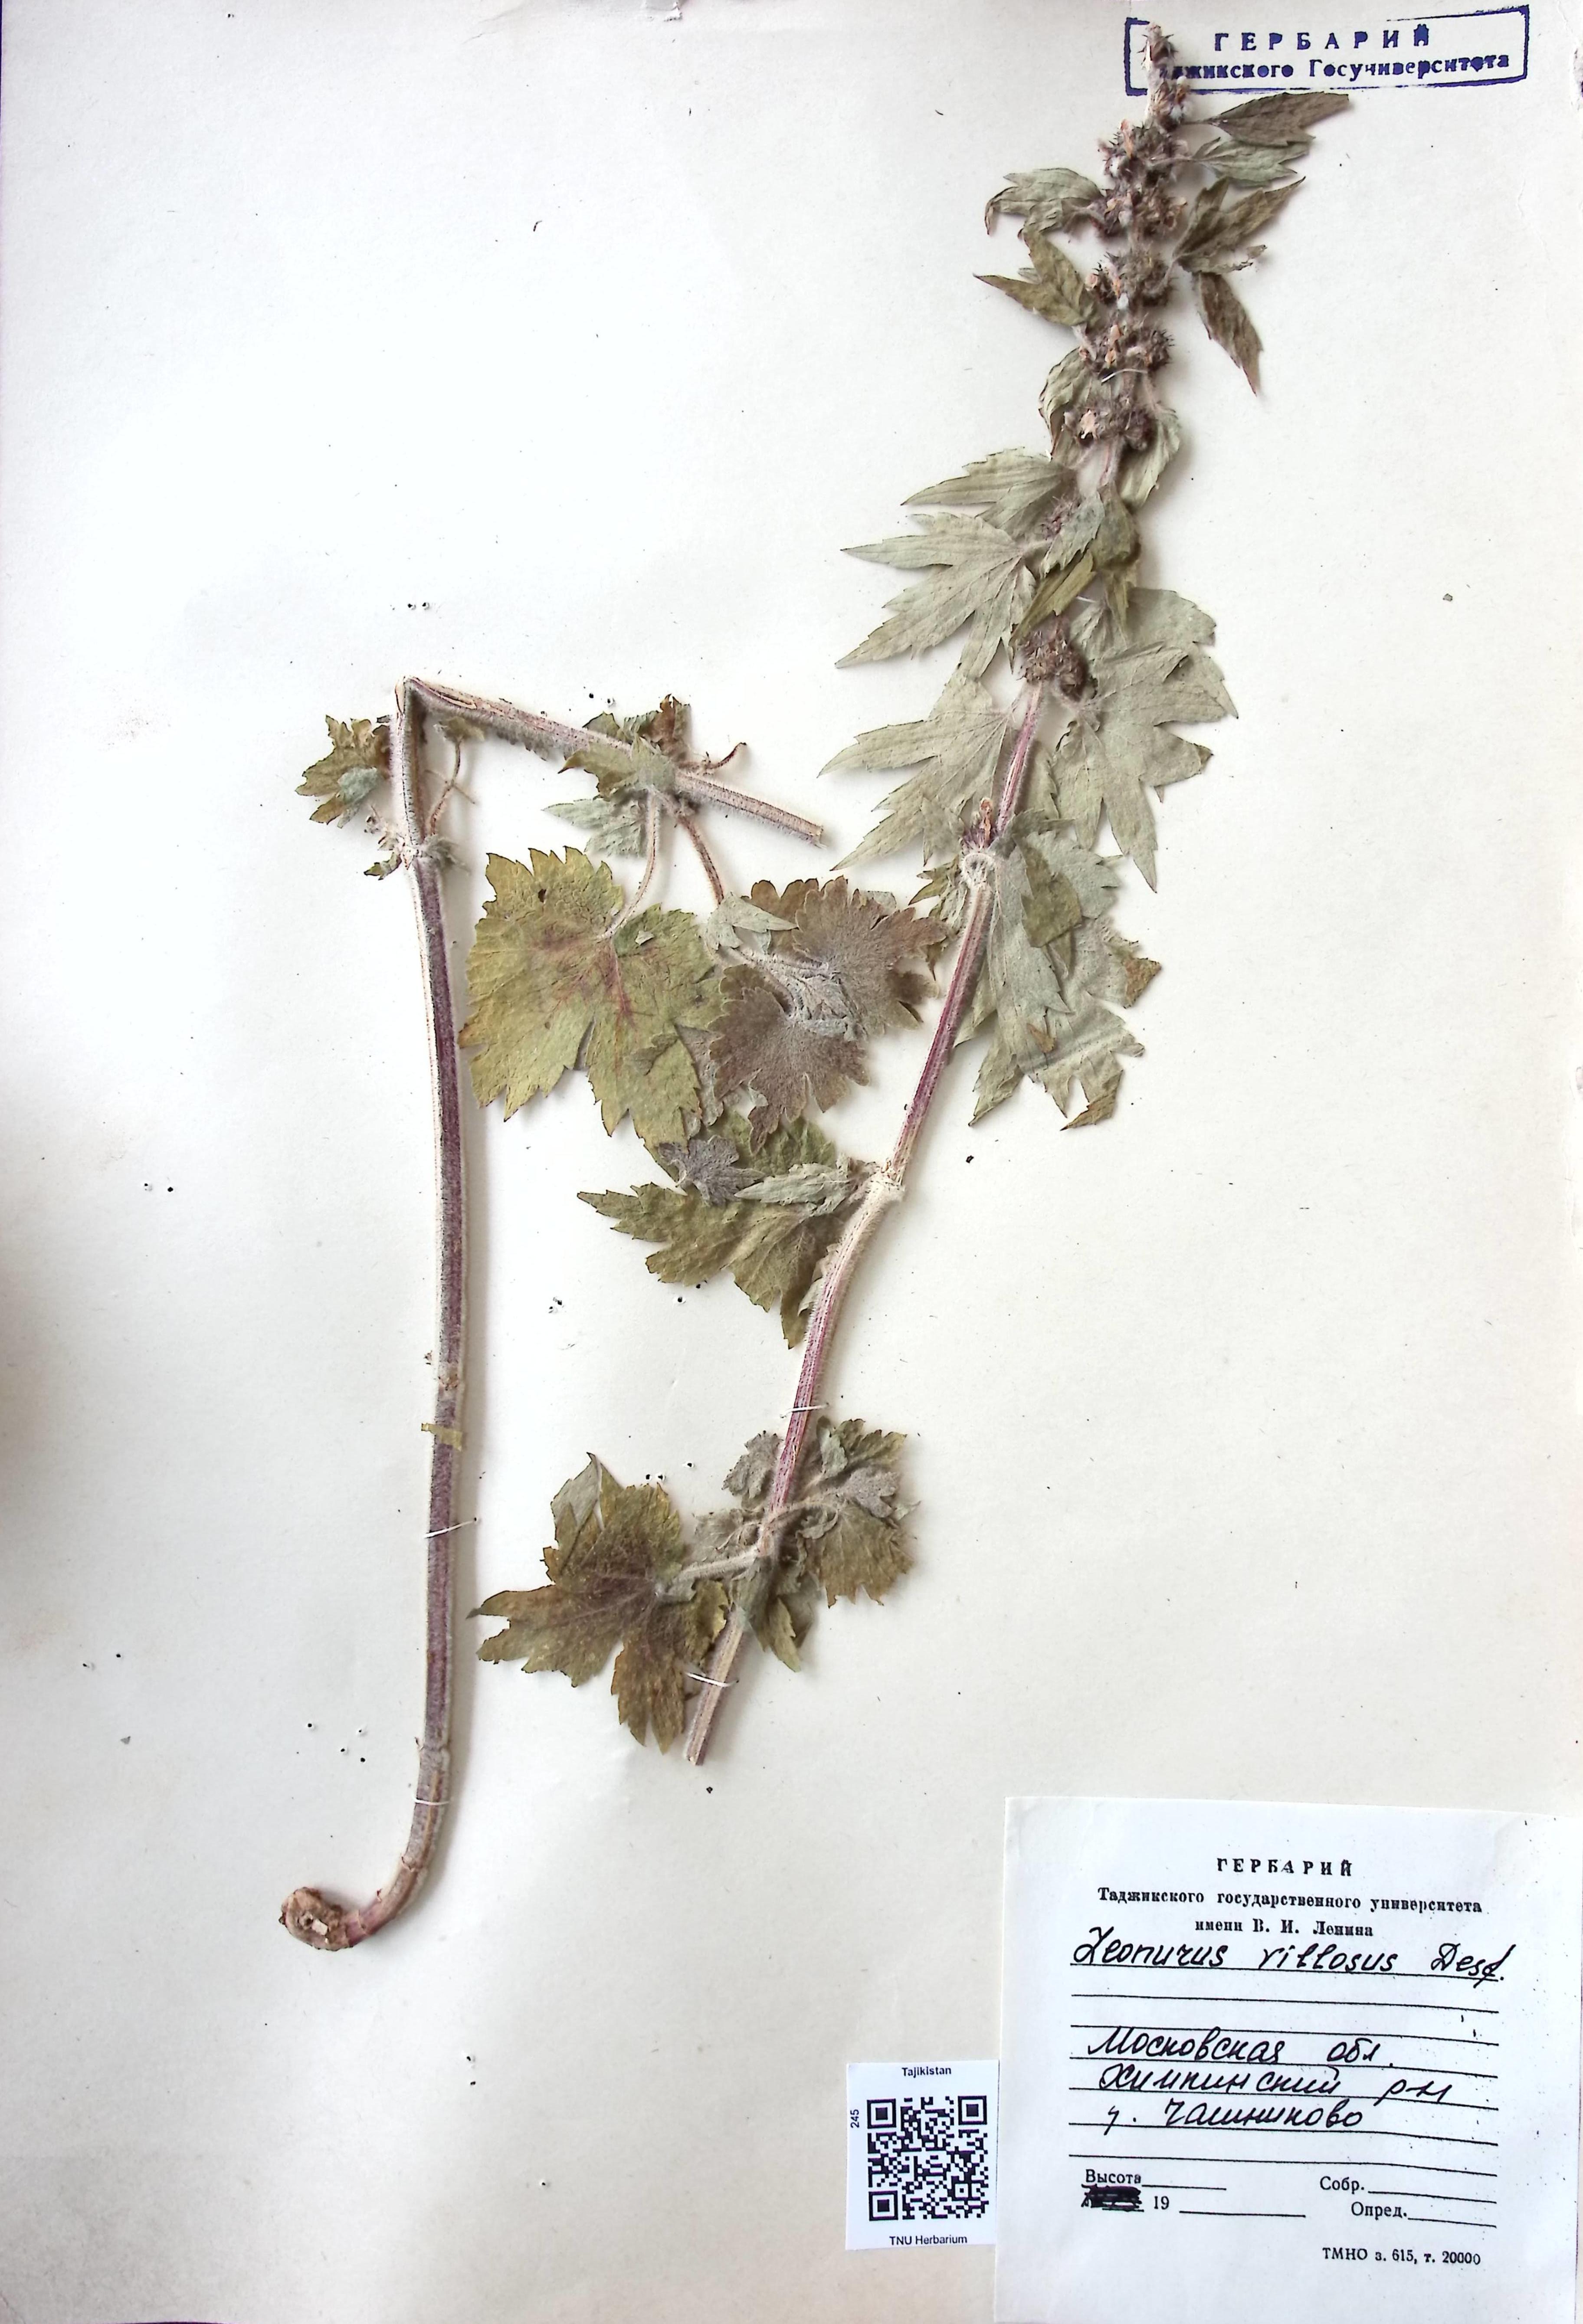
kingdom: Plantae
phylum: Tracheophyta
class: Magnoliopsida
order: Lamiales
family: Lamiaceae
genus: Leonotis
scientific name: Leonotis Leonurus villosus
